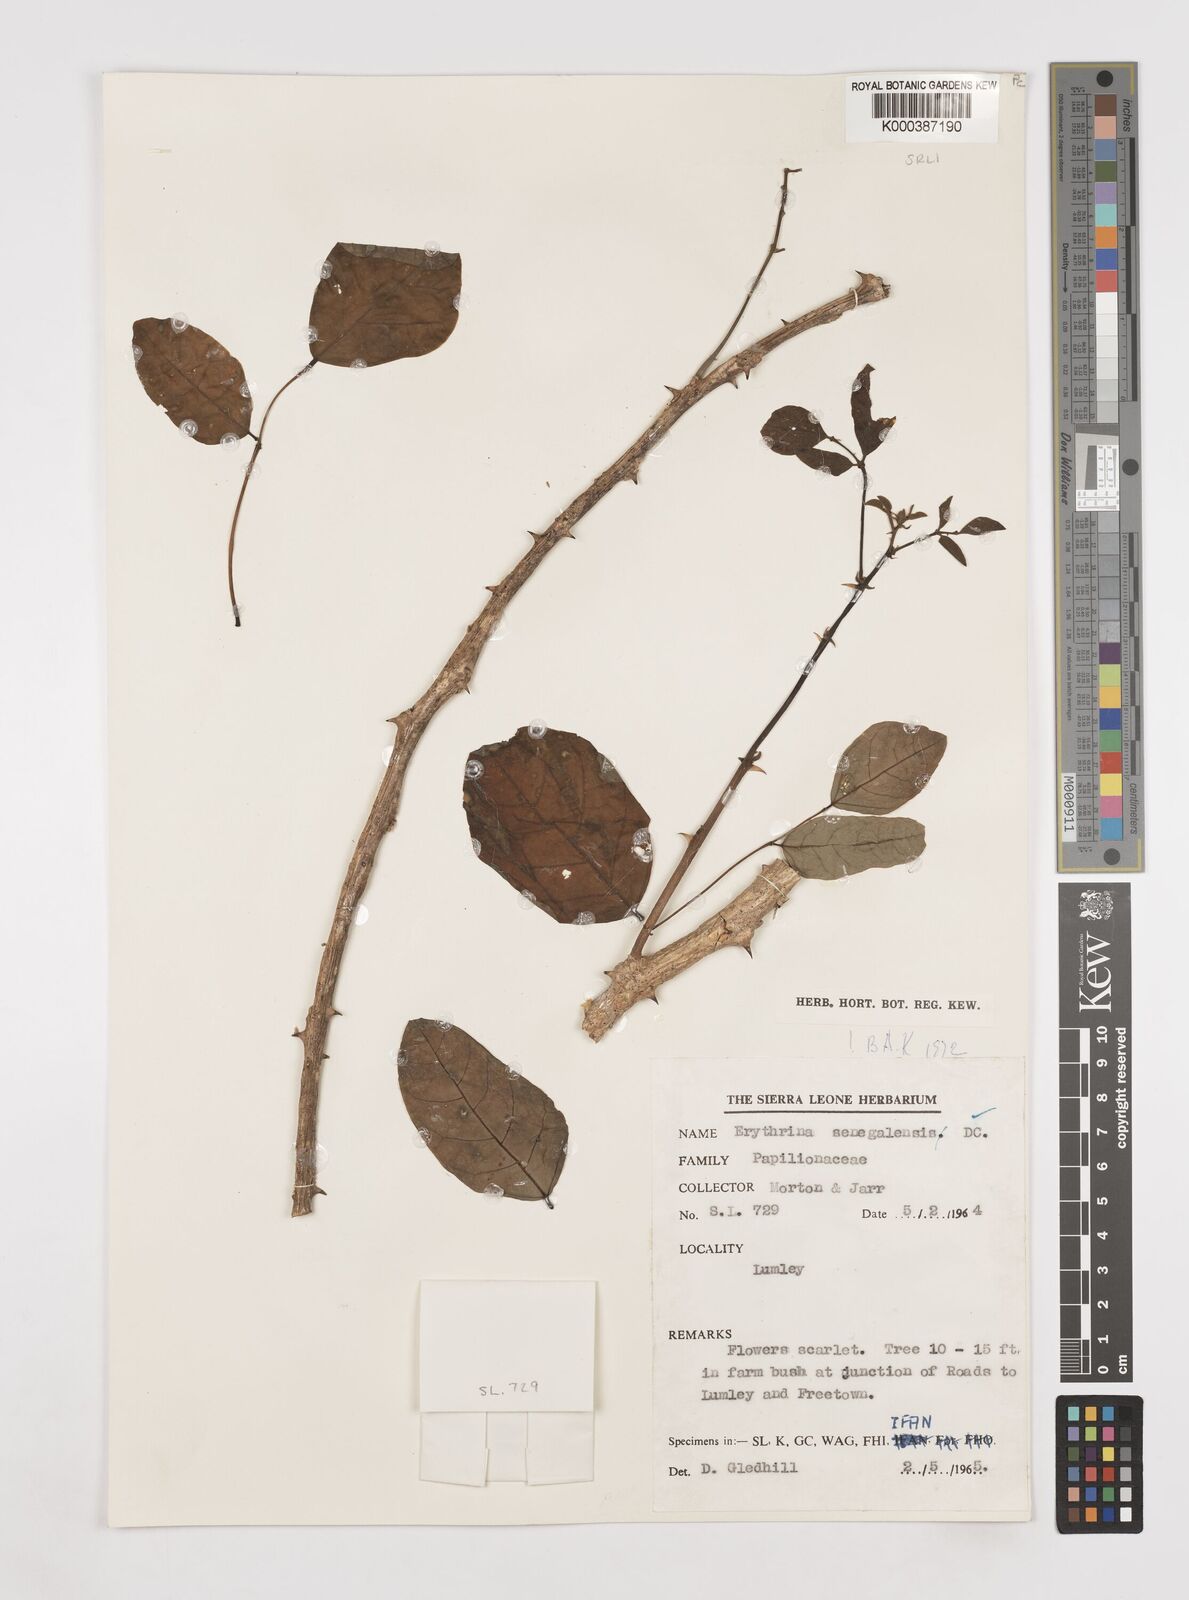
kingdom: Plantae
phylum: Tracheophyta
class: Magnoliopsida
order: Fabales
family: Fabaceae
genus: Erythrina
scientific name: Erythrina senegalensis
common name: Senegal coraltree
